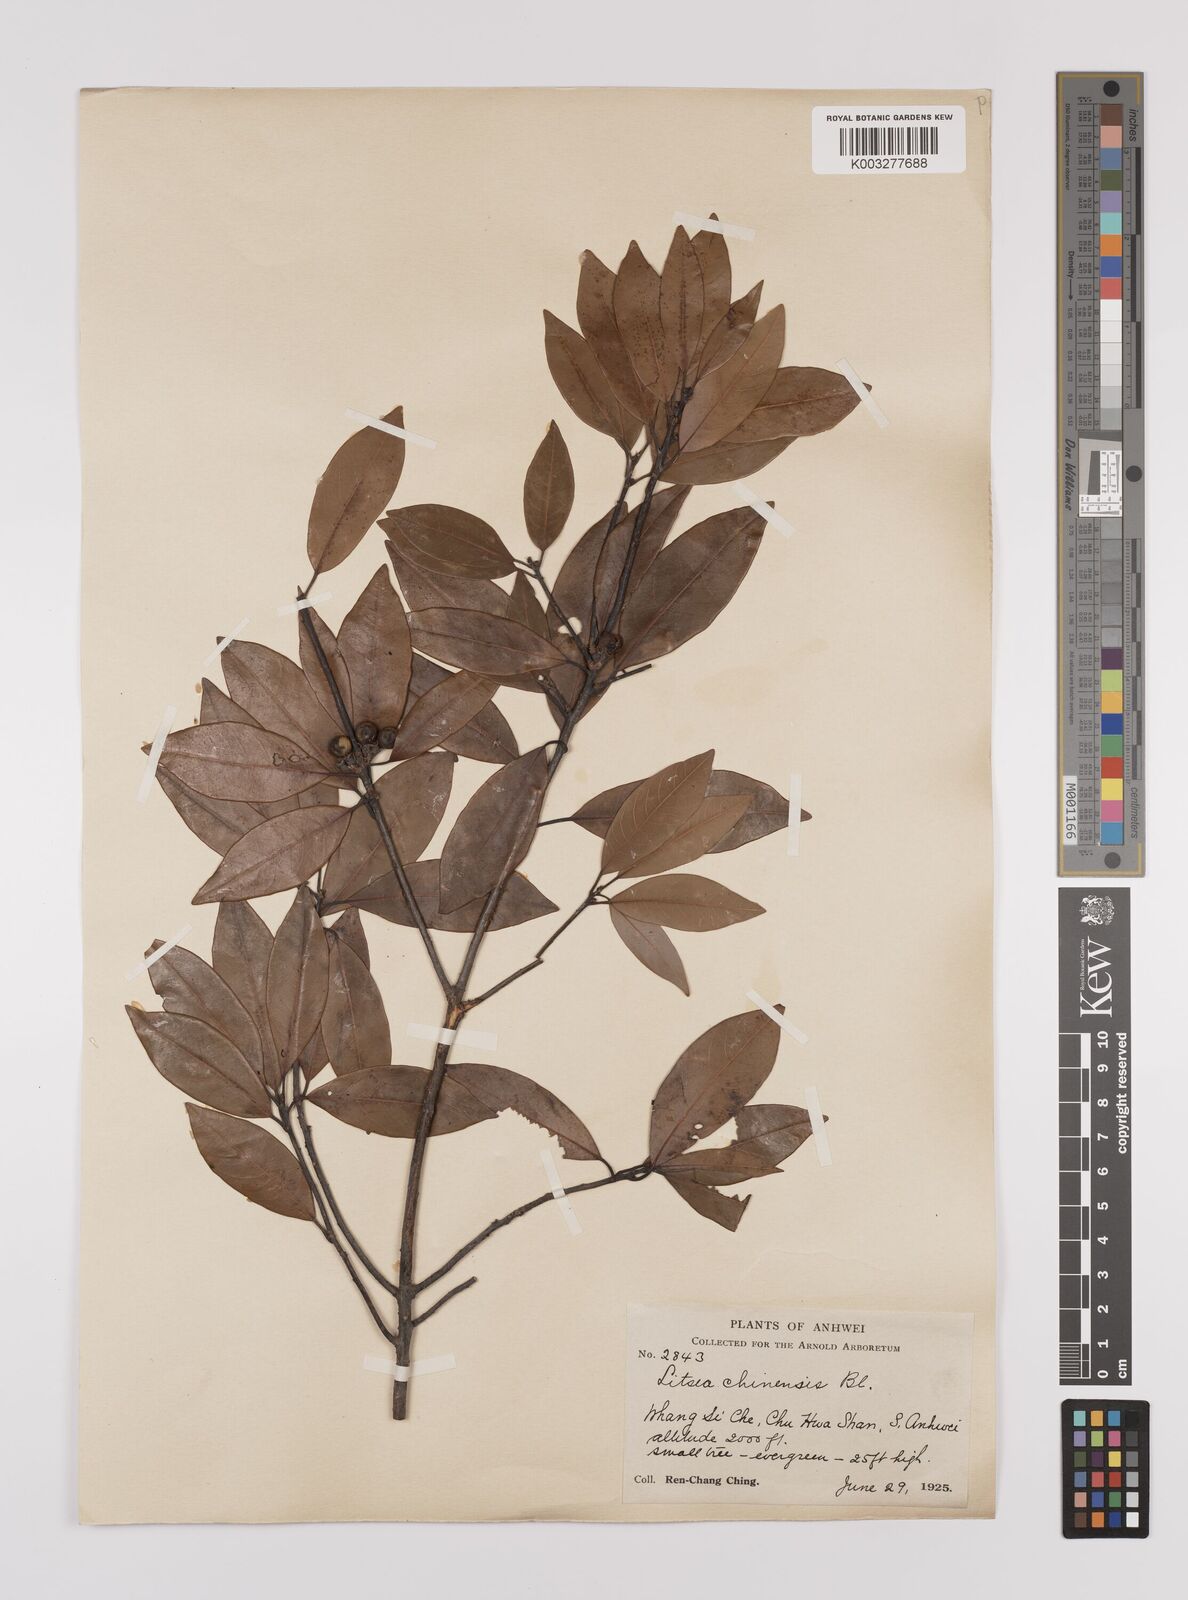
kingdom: Plantae
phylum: Tracheophyta
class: Magnoliopsida
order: Laurales
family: Lauraceae
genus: Litsea
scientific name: Litsea rotundifolia
